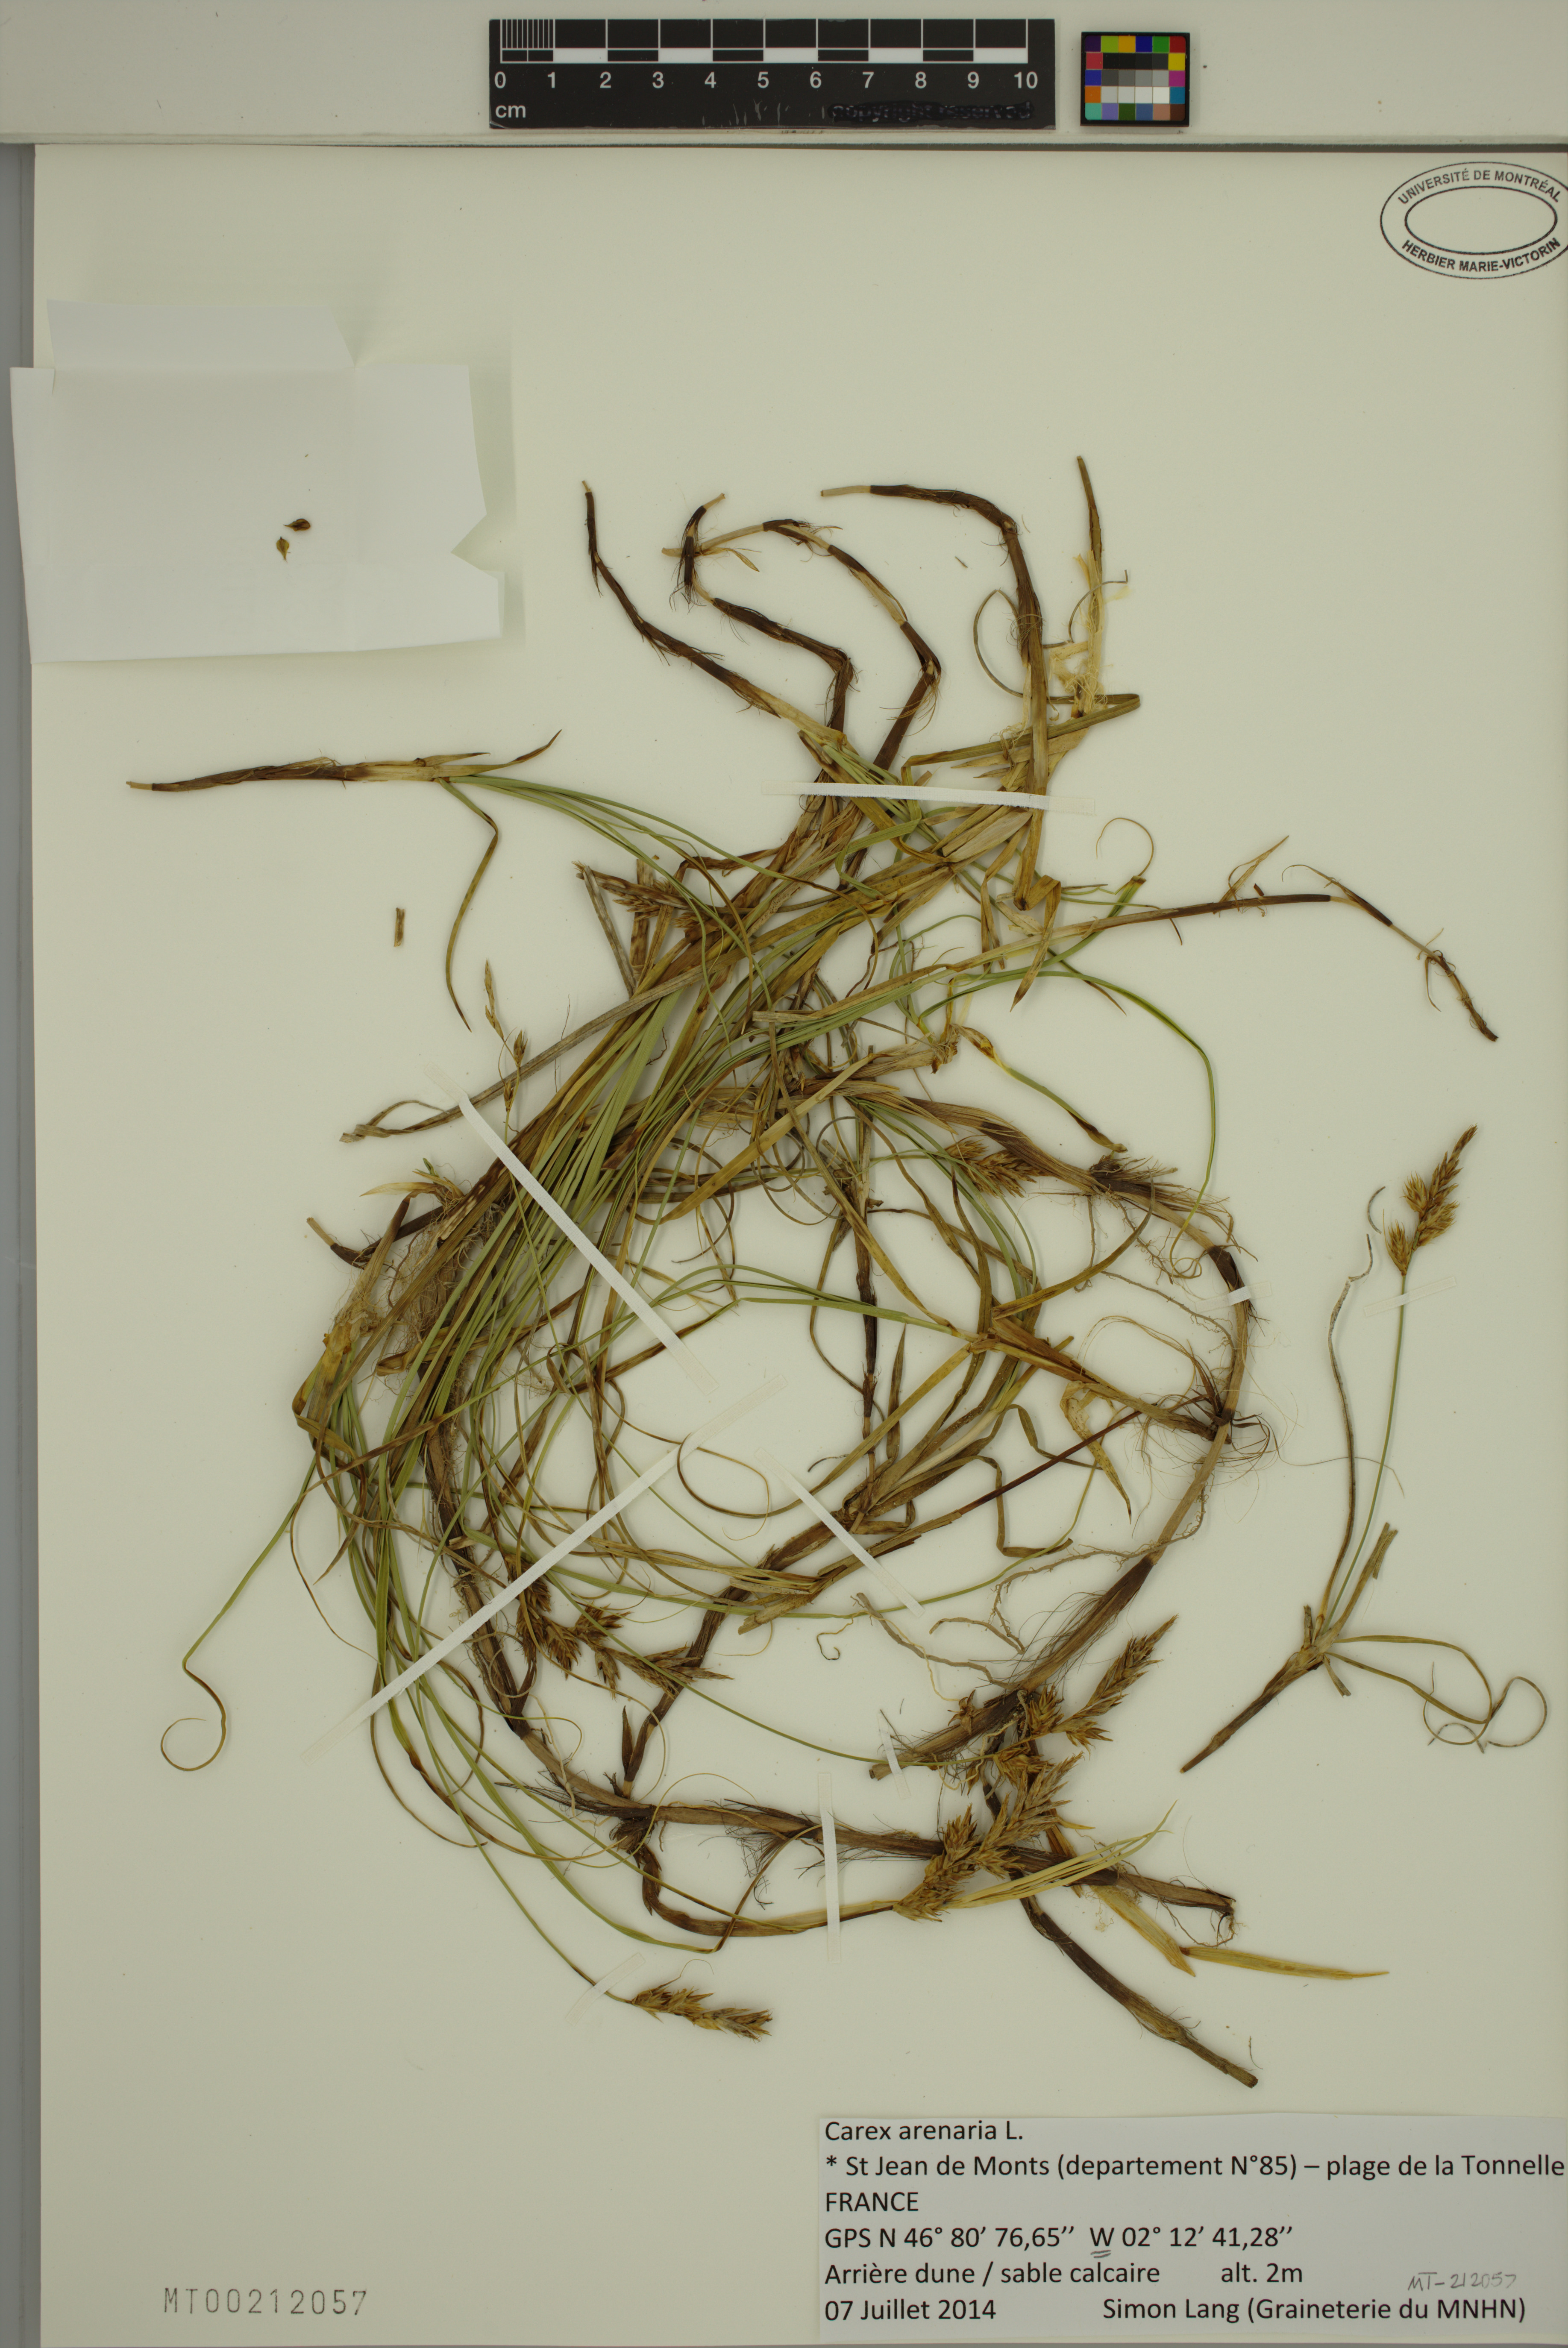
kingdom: Plantae
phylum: Tracheophyta
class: Liliopsida
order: Poales
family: Cyperaceae
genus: Carex
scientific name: Carex arenaria
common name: Sand sedge
